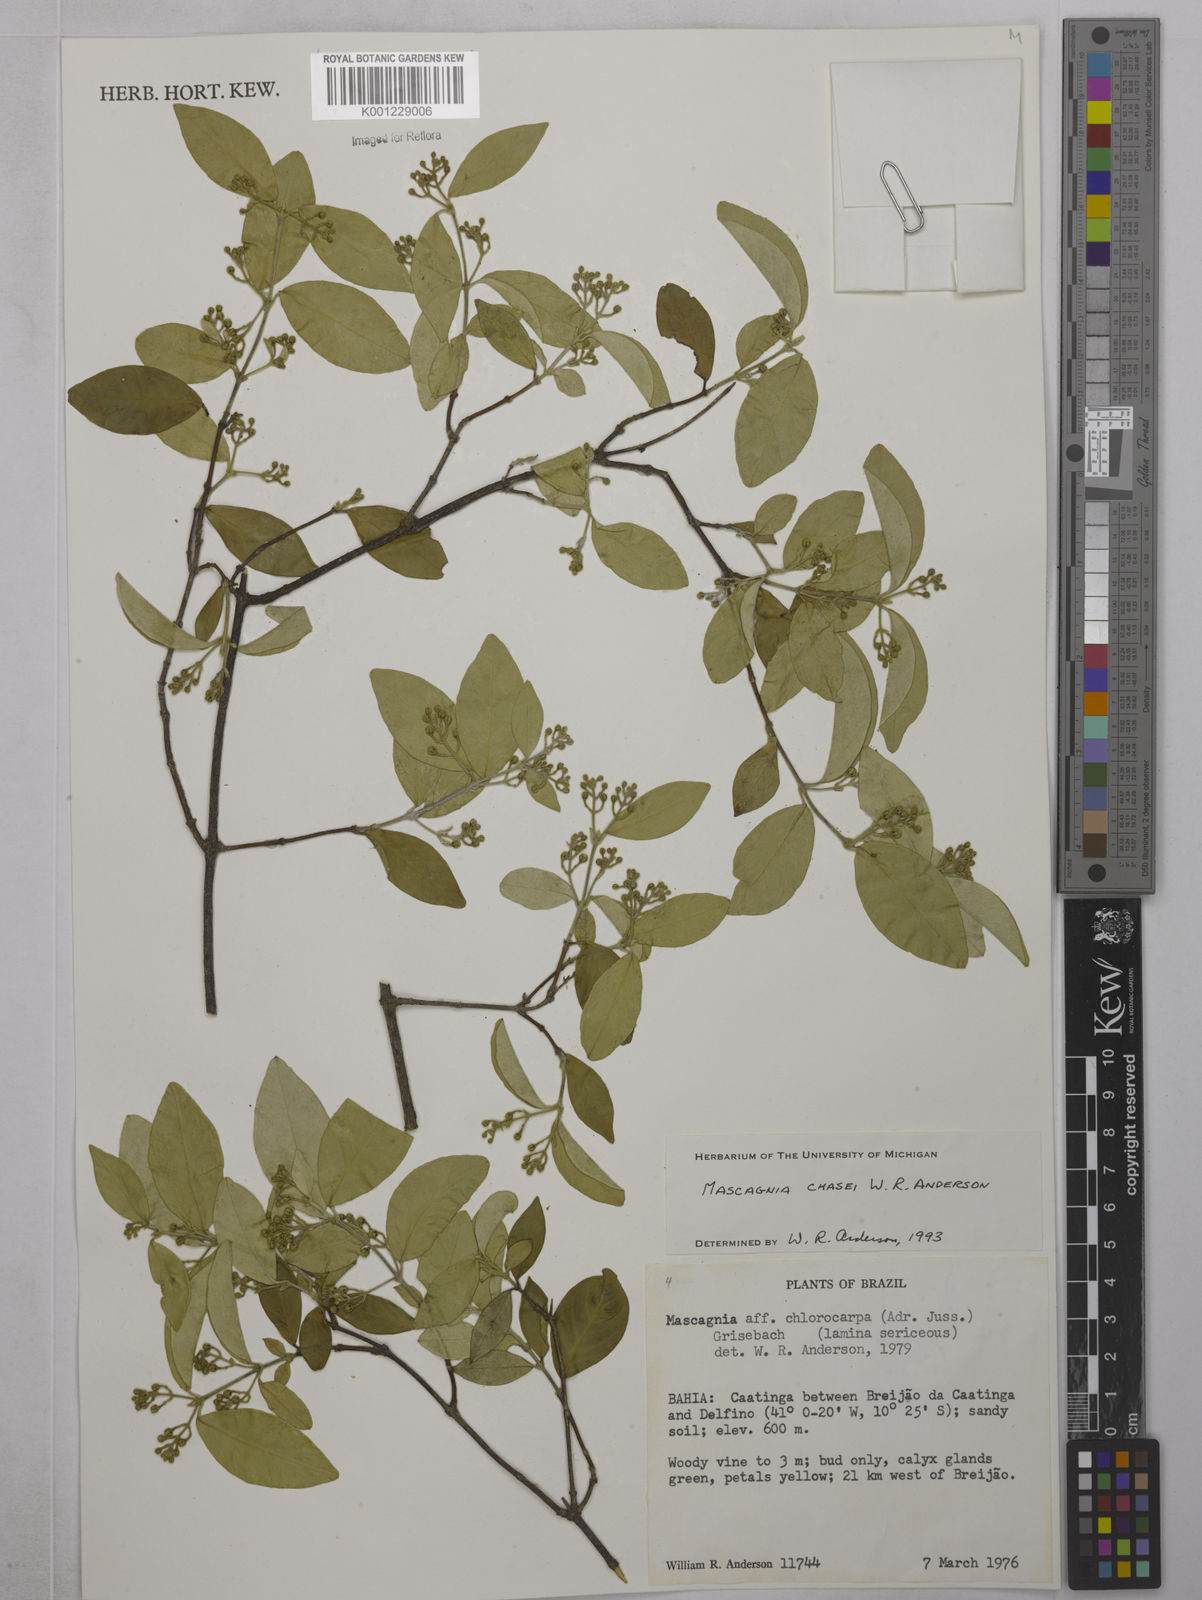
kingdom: Plantae
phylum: Tracheophyta
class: Magnoliopsida
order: Malpighiales
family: Malpighiaceae
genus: Carolus
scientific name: Carolus chasei
